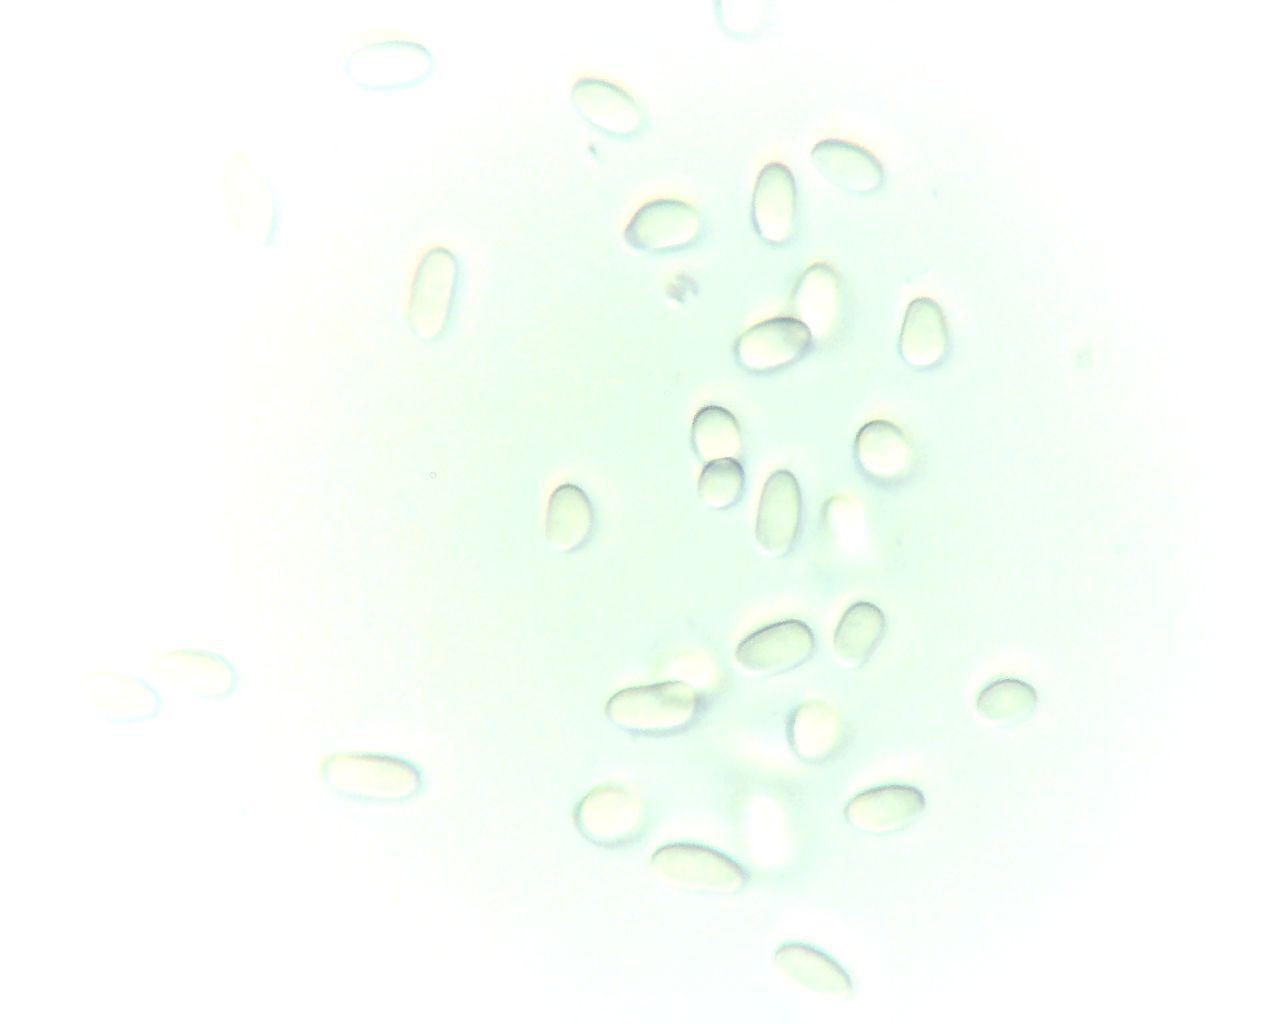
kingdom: Fungi
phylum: Ascomycota
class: Dothideomycetes
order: Pleosporales
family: Didymellaceae
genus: Boeremia
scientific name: Boeremia hedericola
